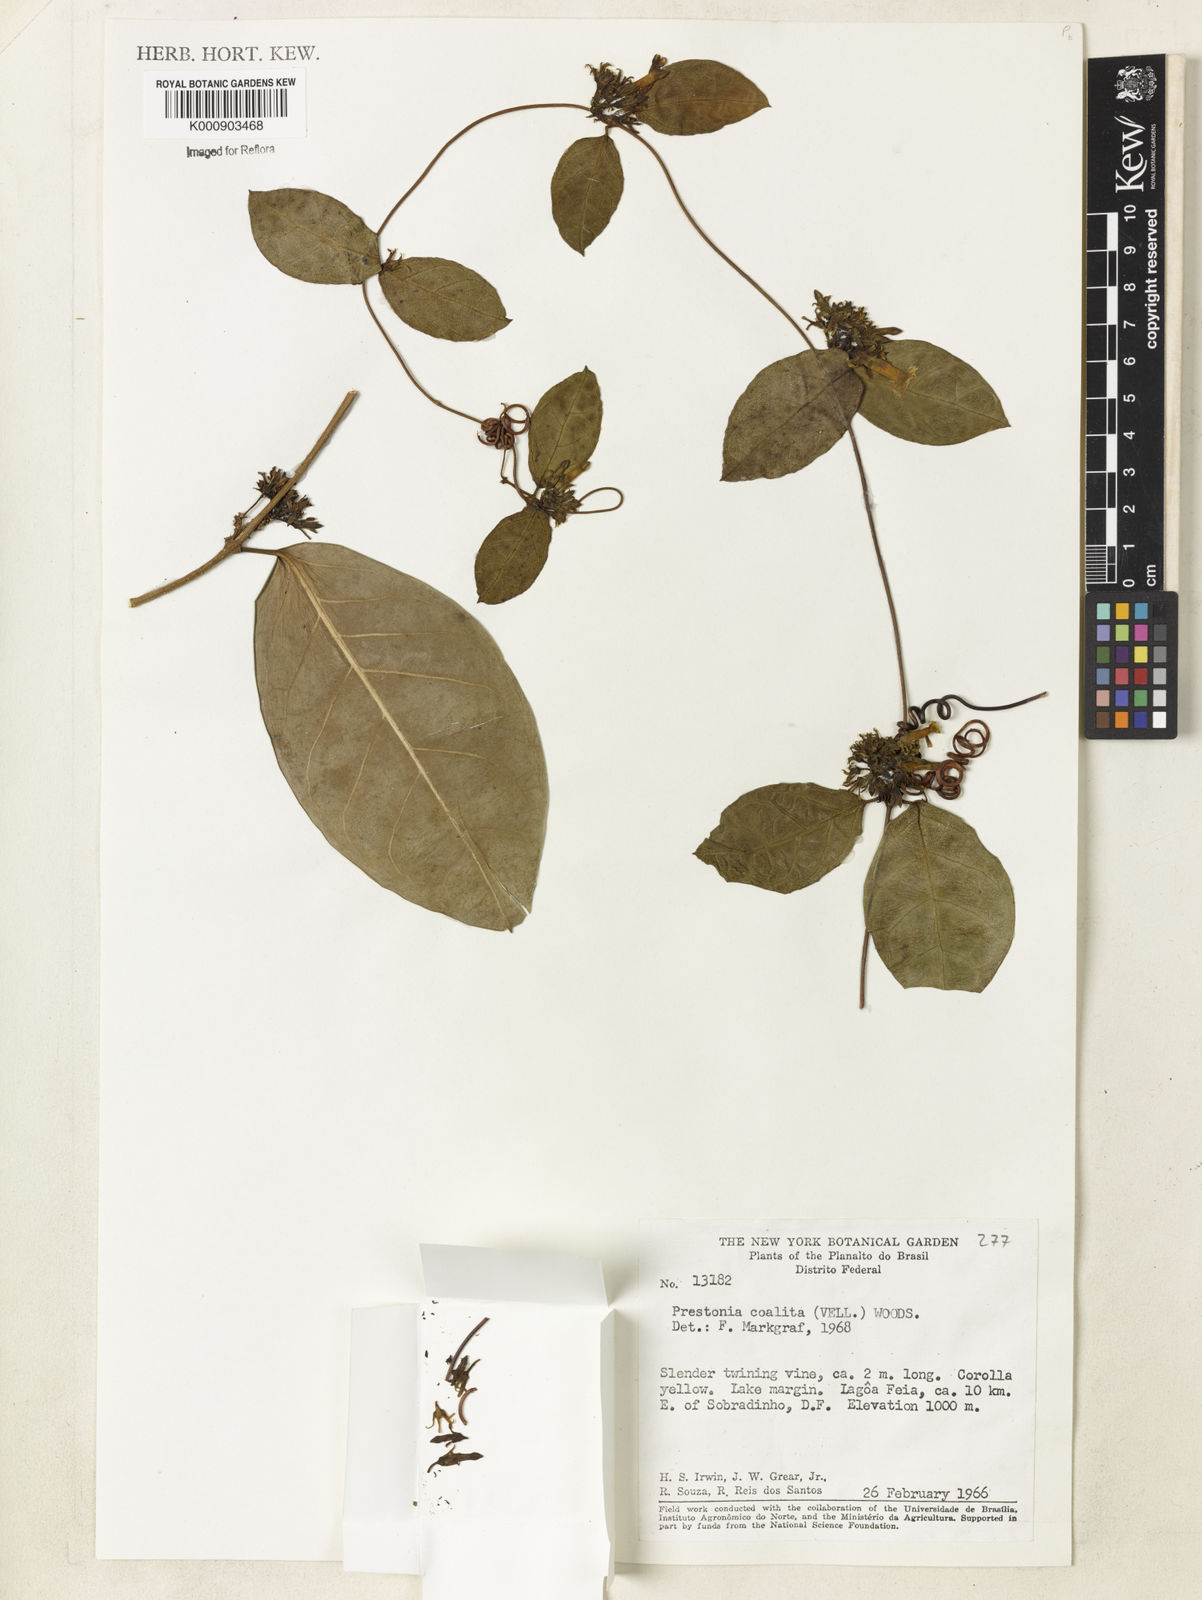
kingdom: Plantae
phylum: Tracheophyta
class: Magnoliopsida
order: Gentianales
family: Apocynaceae
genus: Prestonia
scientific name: Prestonia coalita
